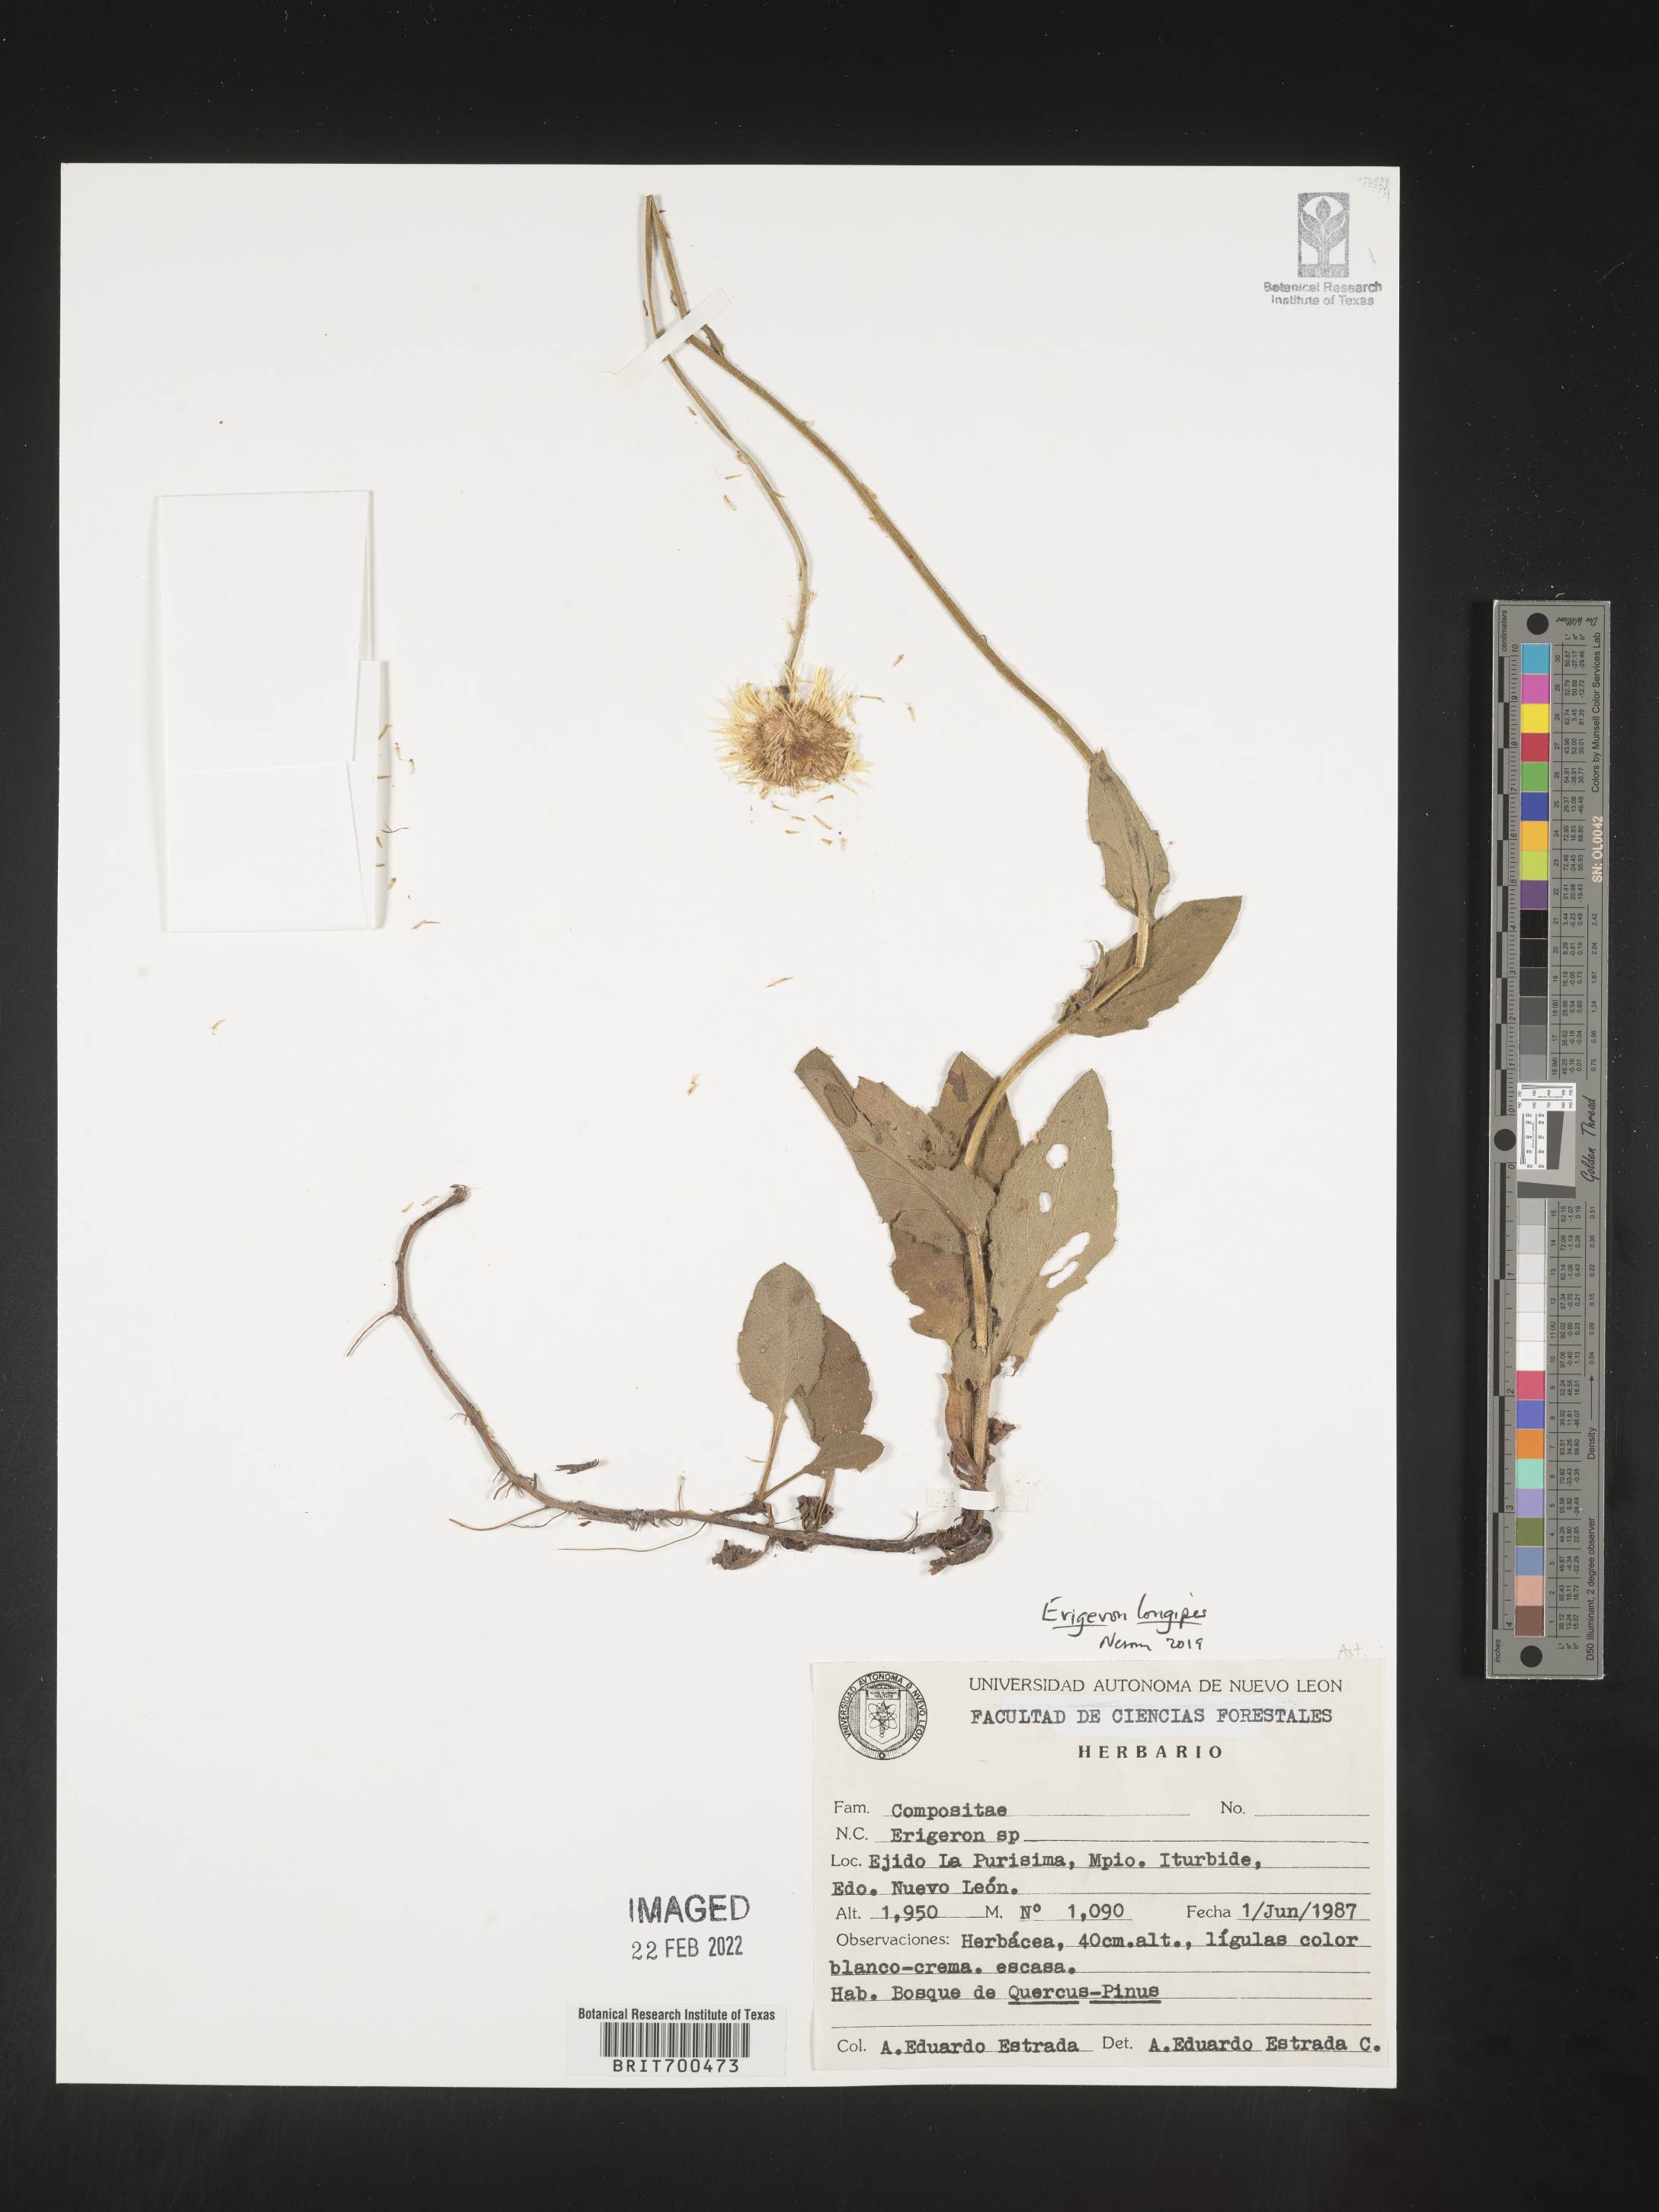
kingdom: Plantae
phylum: Tracheophyta
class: Magnoliopsida
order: Asterales
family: Asteraceae
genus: Erigeron
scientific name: Erigeron
